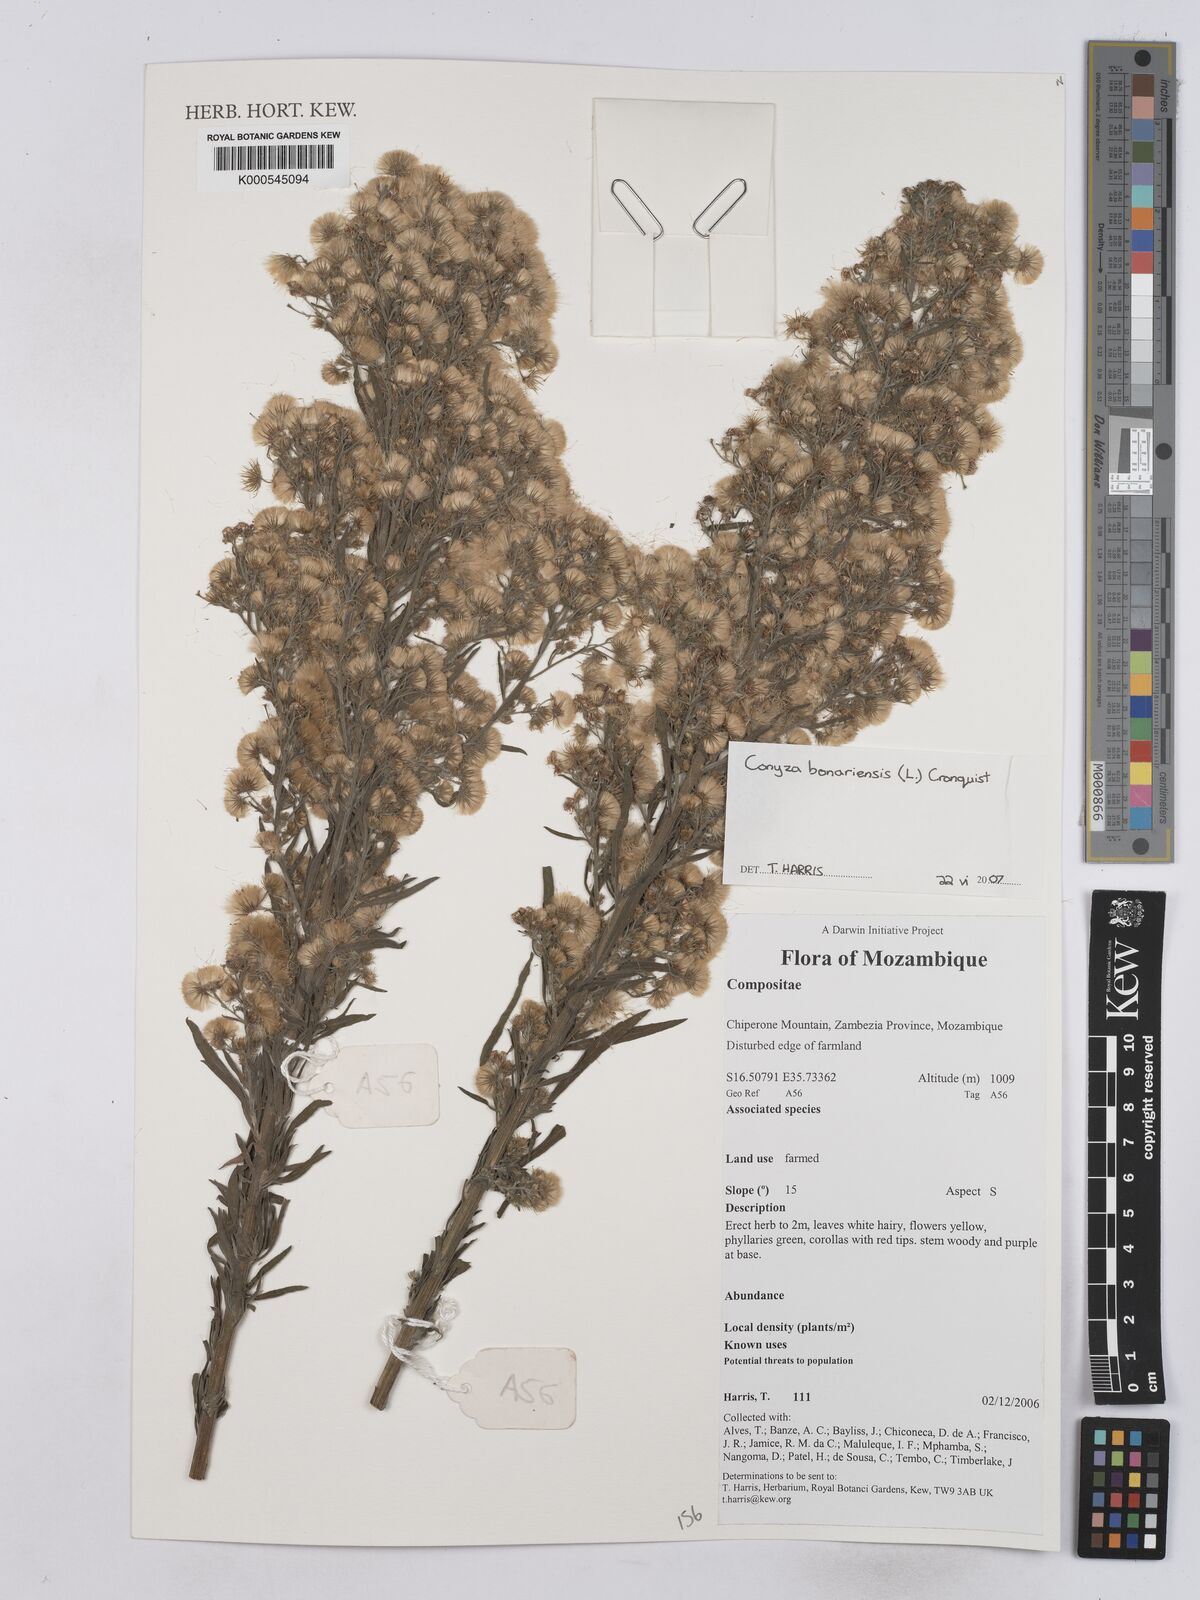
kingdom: Plantae
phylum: Tracheophyta
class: Magnoliopsida
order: Asterales
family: Asteraceae
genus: Erigeron
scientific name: Erigeron bonariensis
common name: Argentine fleabane
